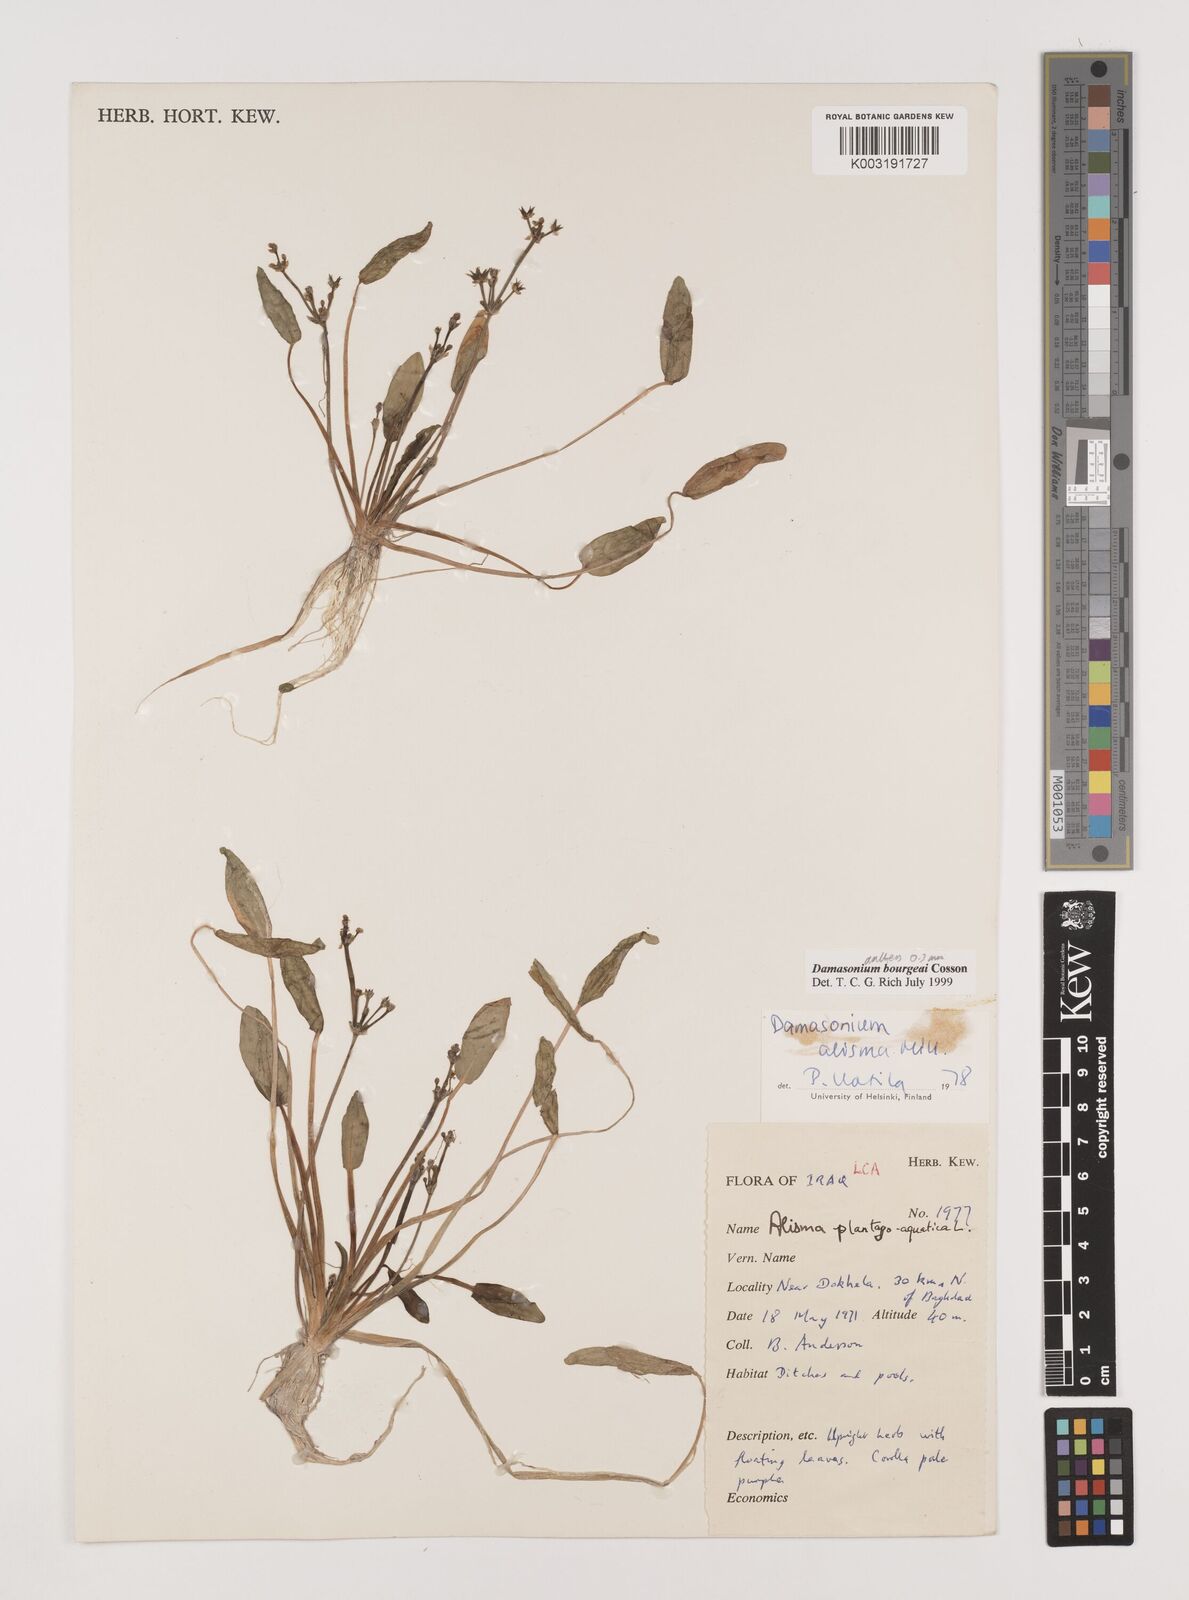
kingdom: Plantae
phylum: Tracheophyta
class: Liliopsida
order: Alismatales
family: Alismataceae
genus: Damasonium
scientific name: Damasonium alisma
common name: Starfruit
